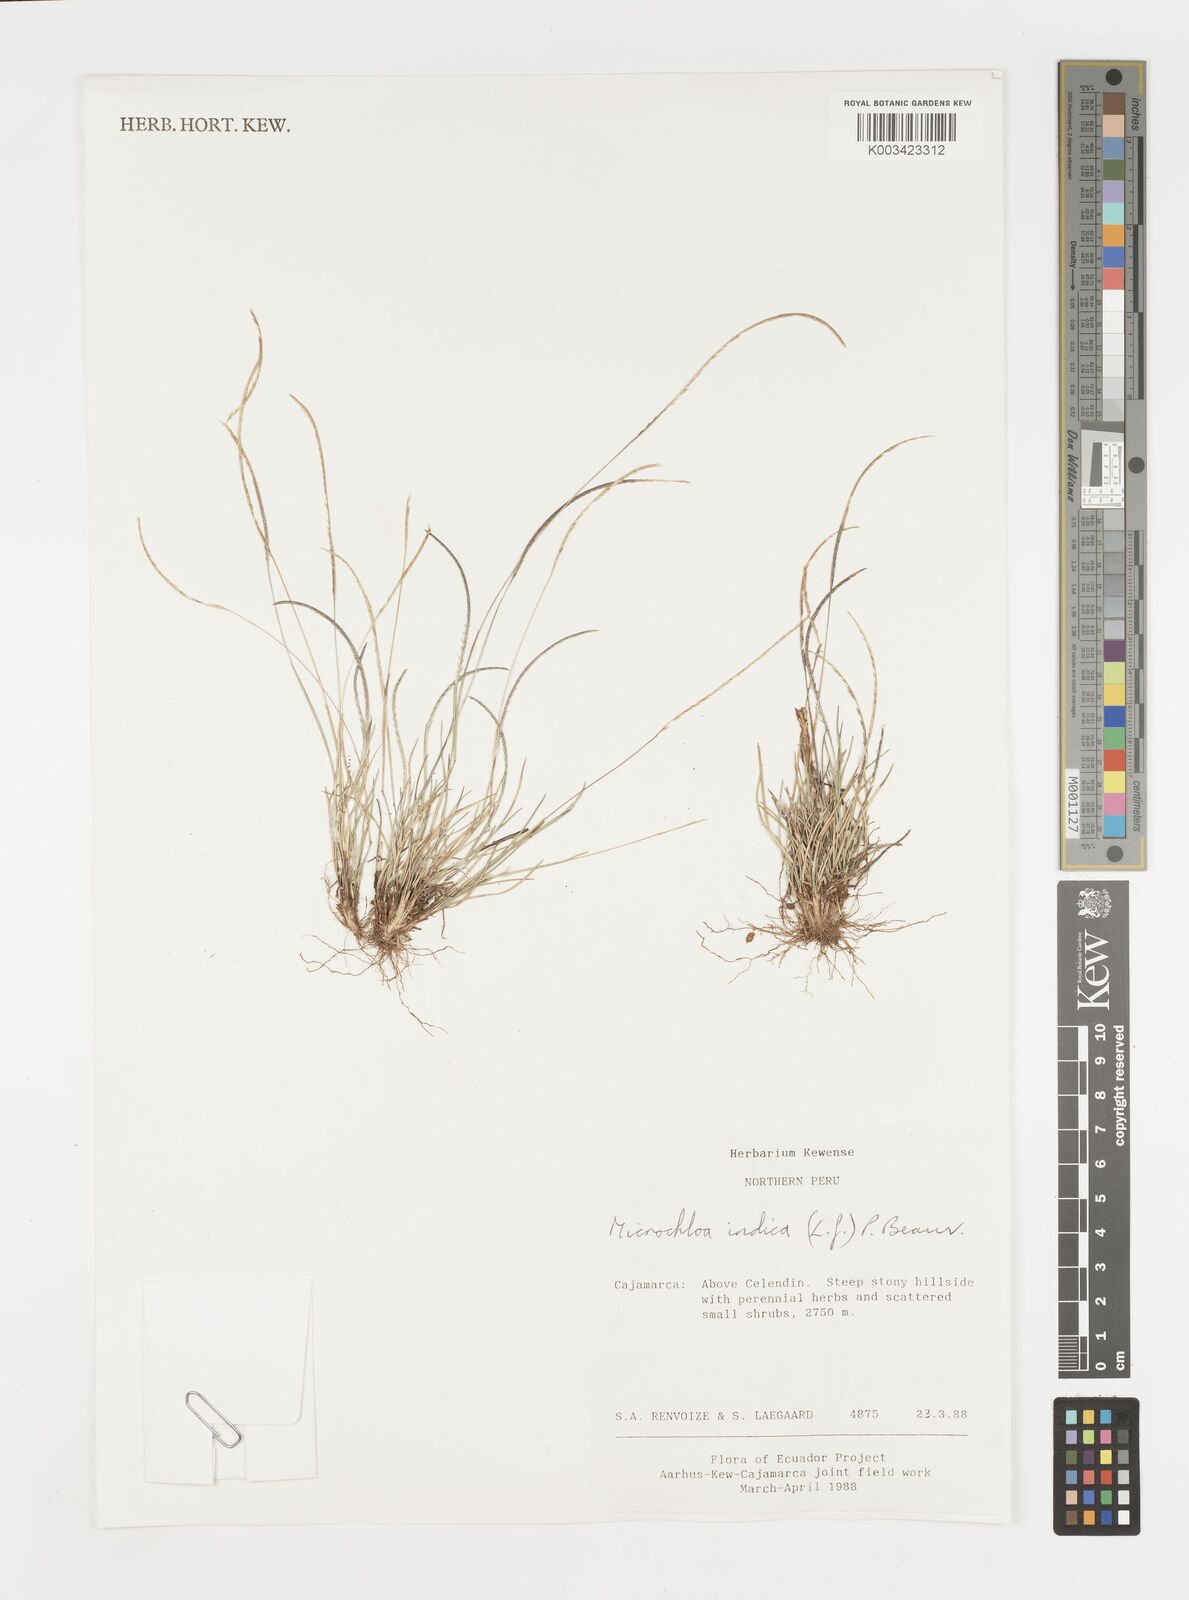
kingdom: Plantae
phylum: Tracheophyta
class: Liliopsida
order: Poales
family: Poaceae
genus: Microchloa
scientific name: Microchloa indica
